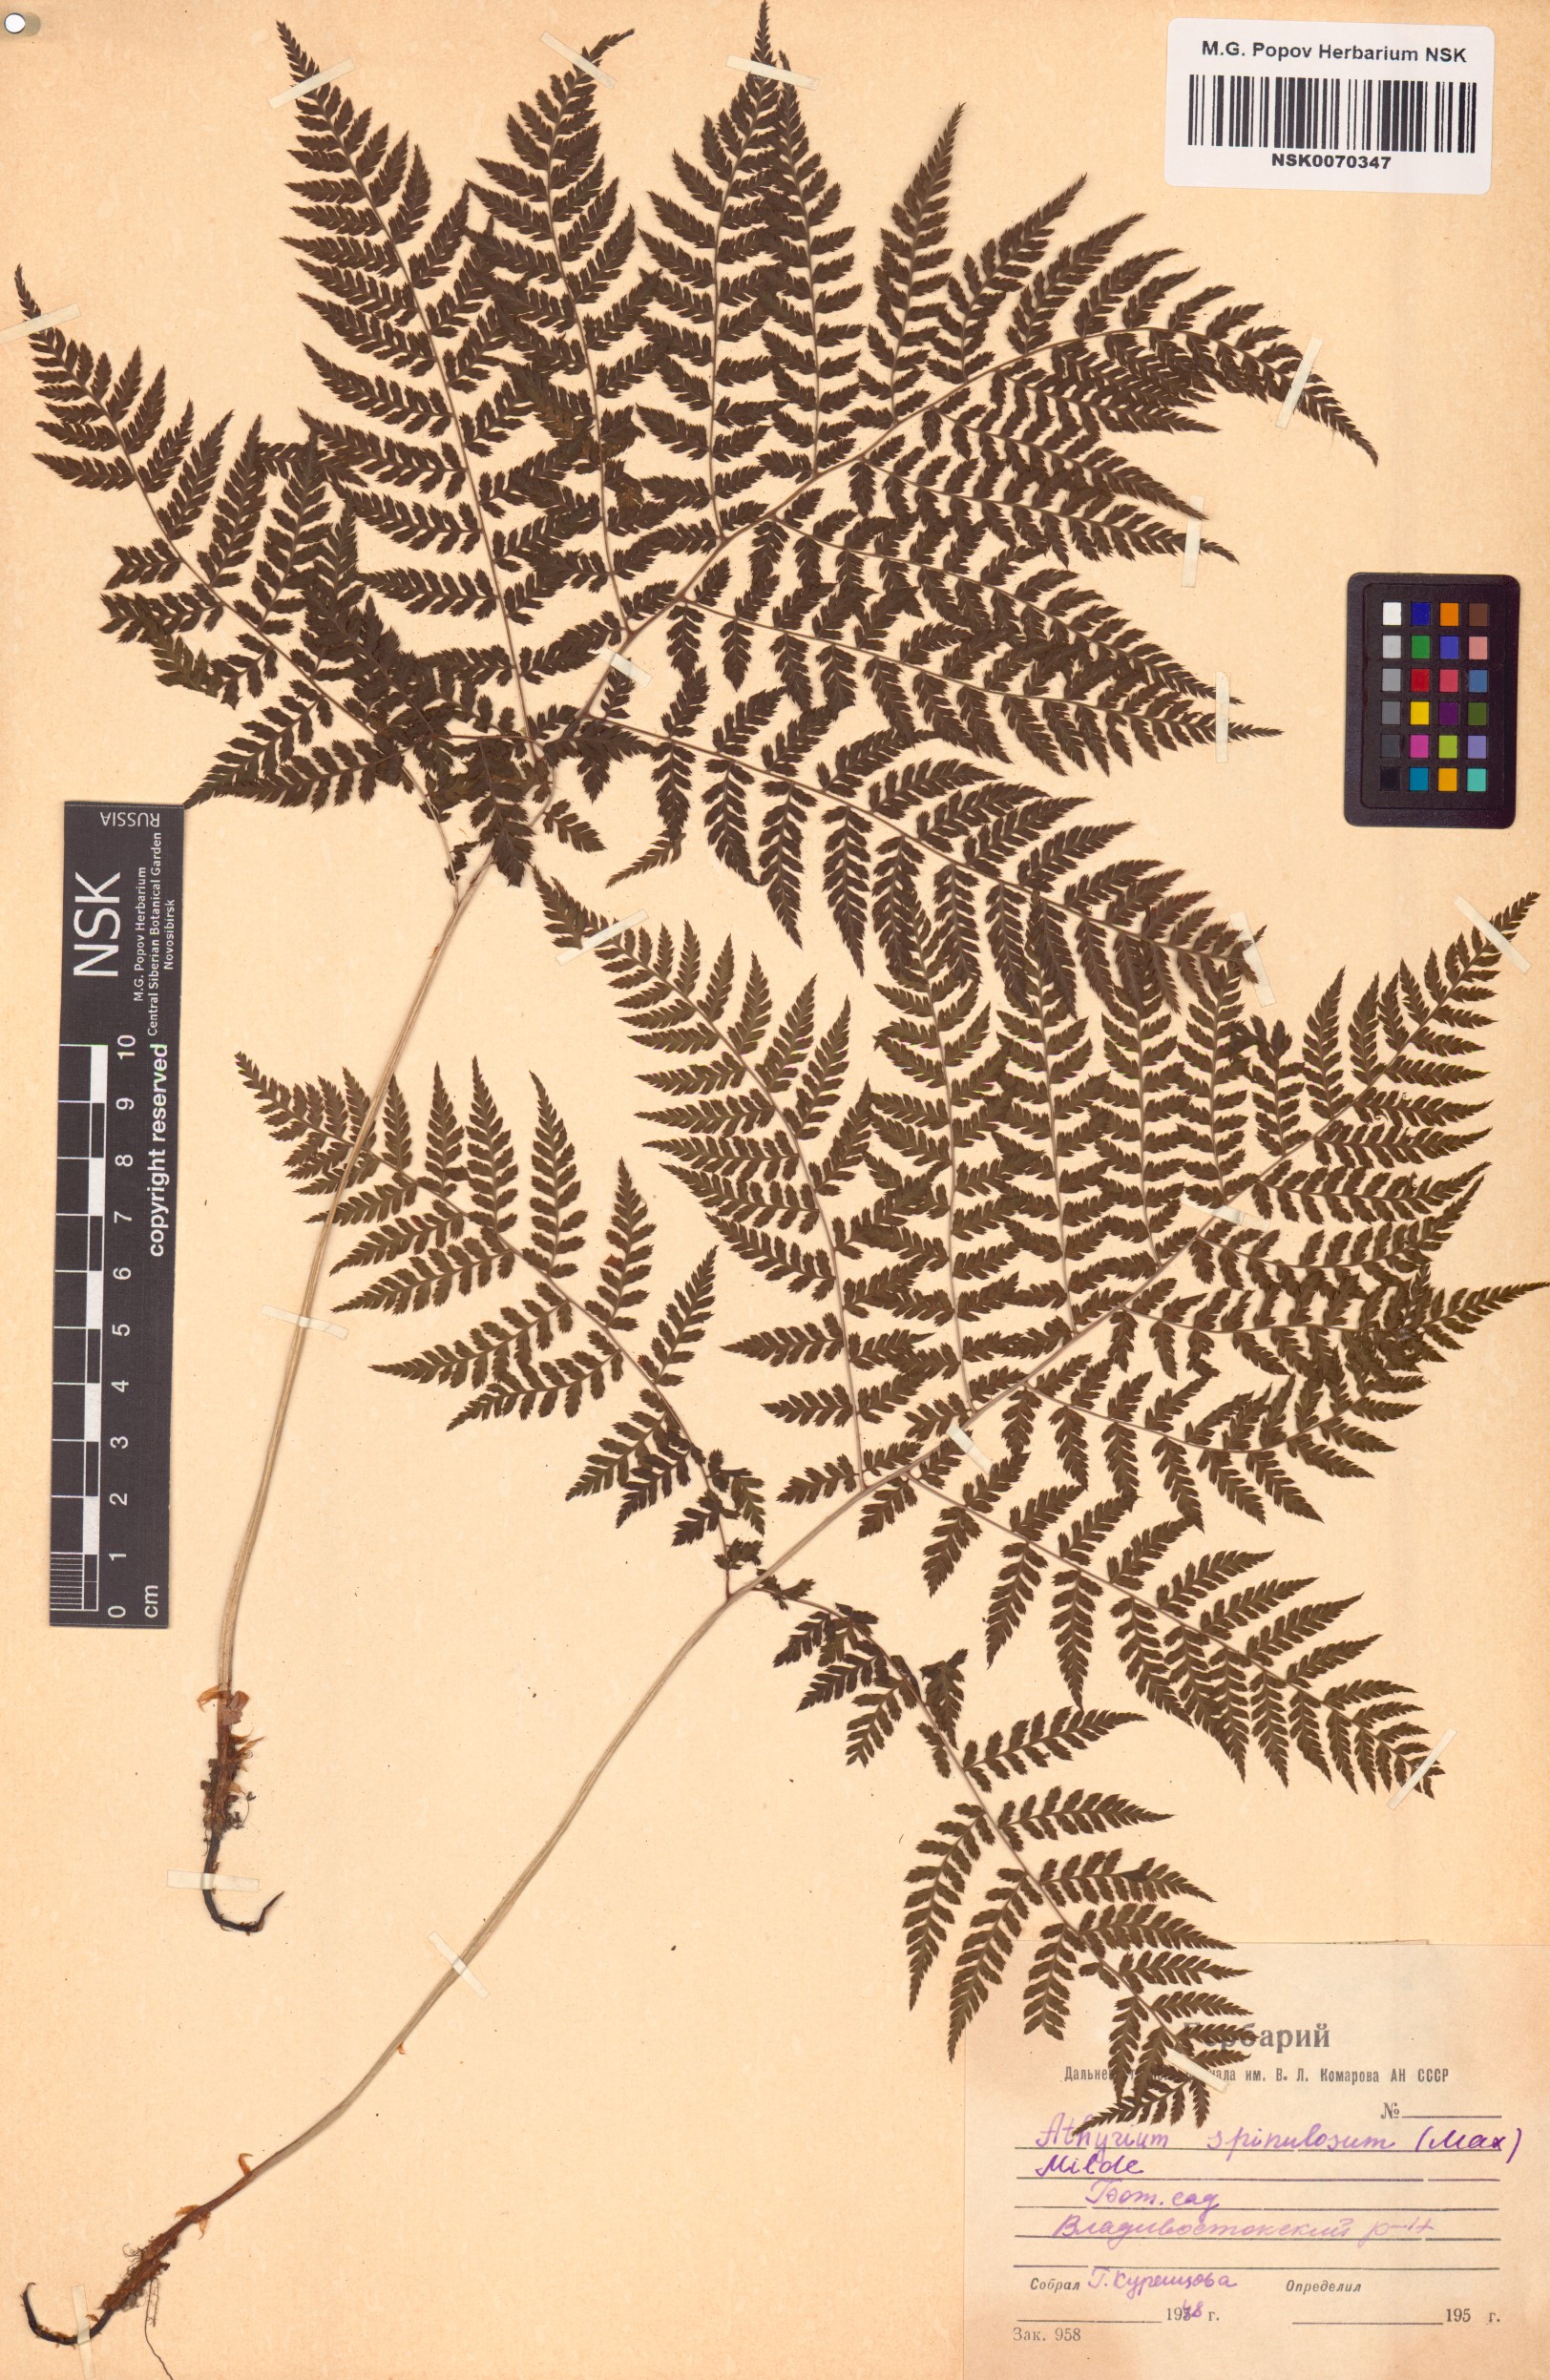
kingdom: Plantae
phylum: Tracheophyta
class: Polypodiopsida
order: Polypodiales
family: Athyriaceae
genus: Athyrium
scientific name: Athyrium spinulosum
